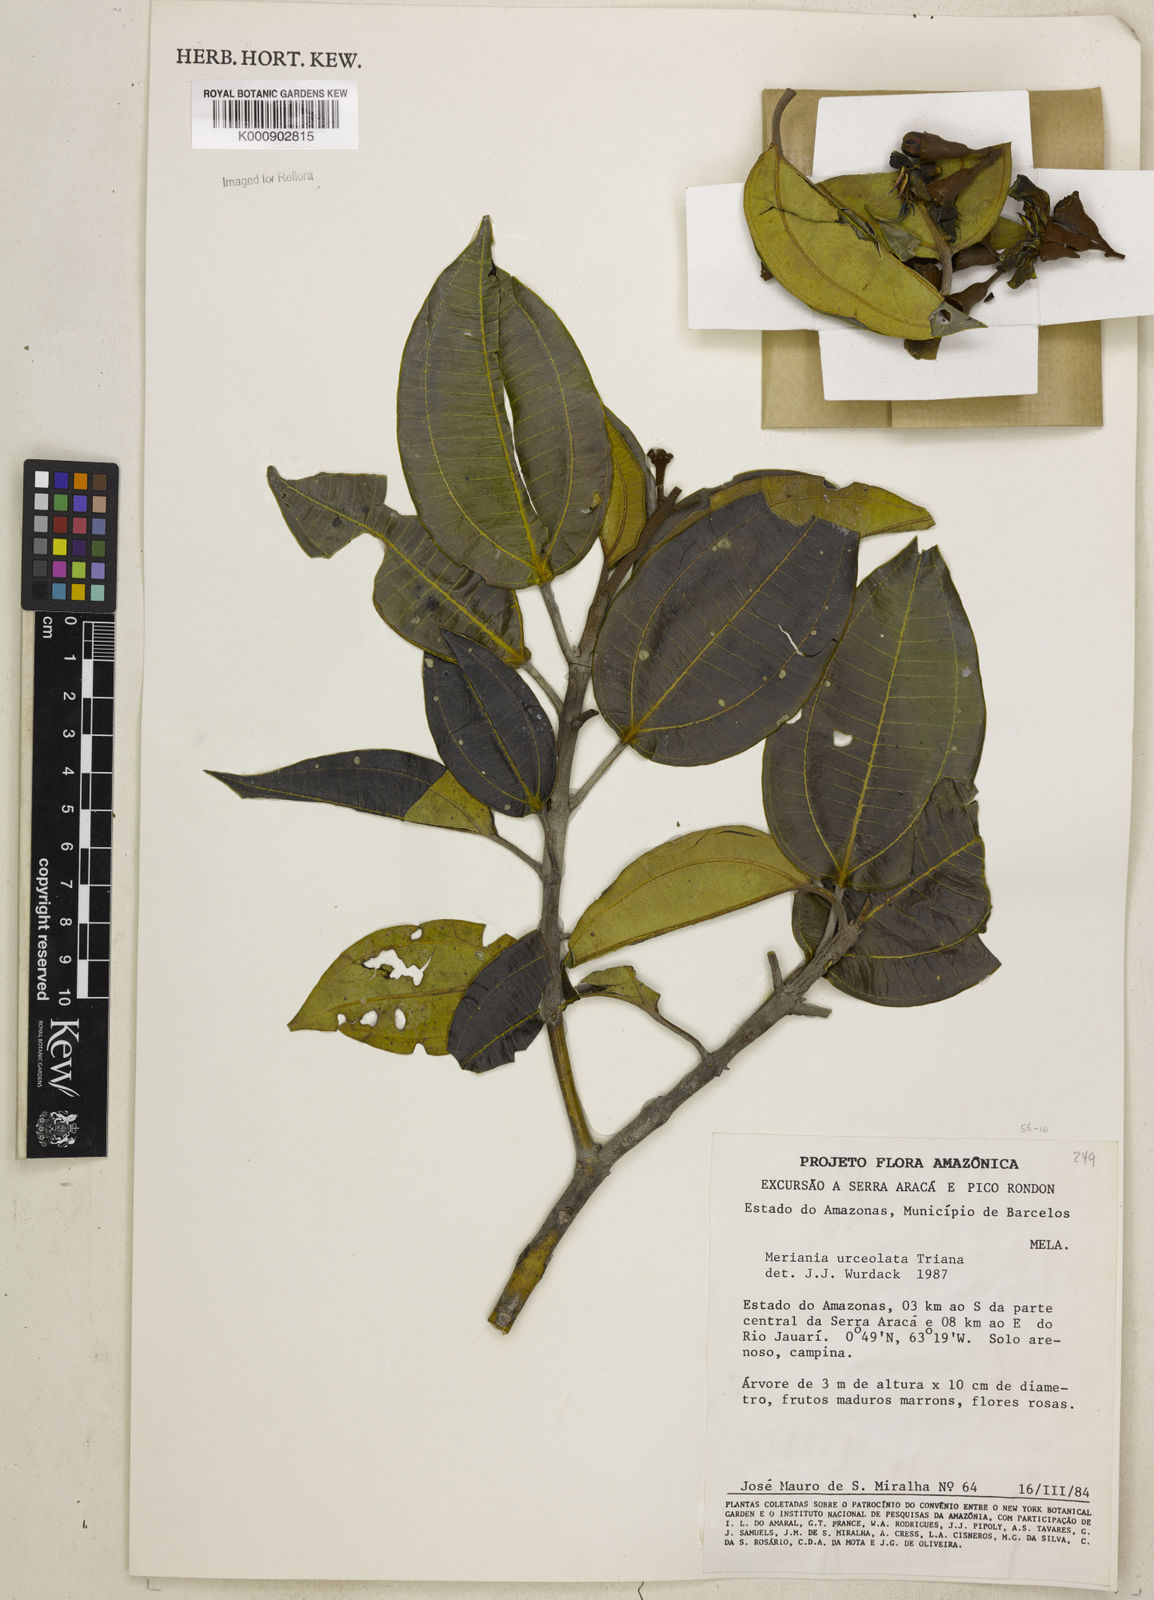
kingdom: Plantae
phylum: Tracheophyta
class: Magnoliopsida
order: Myrtales
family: Melastomataceae
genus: Meriania
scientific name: Meriania urceolata
